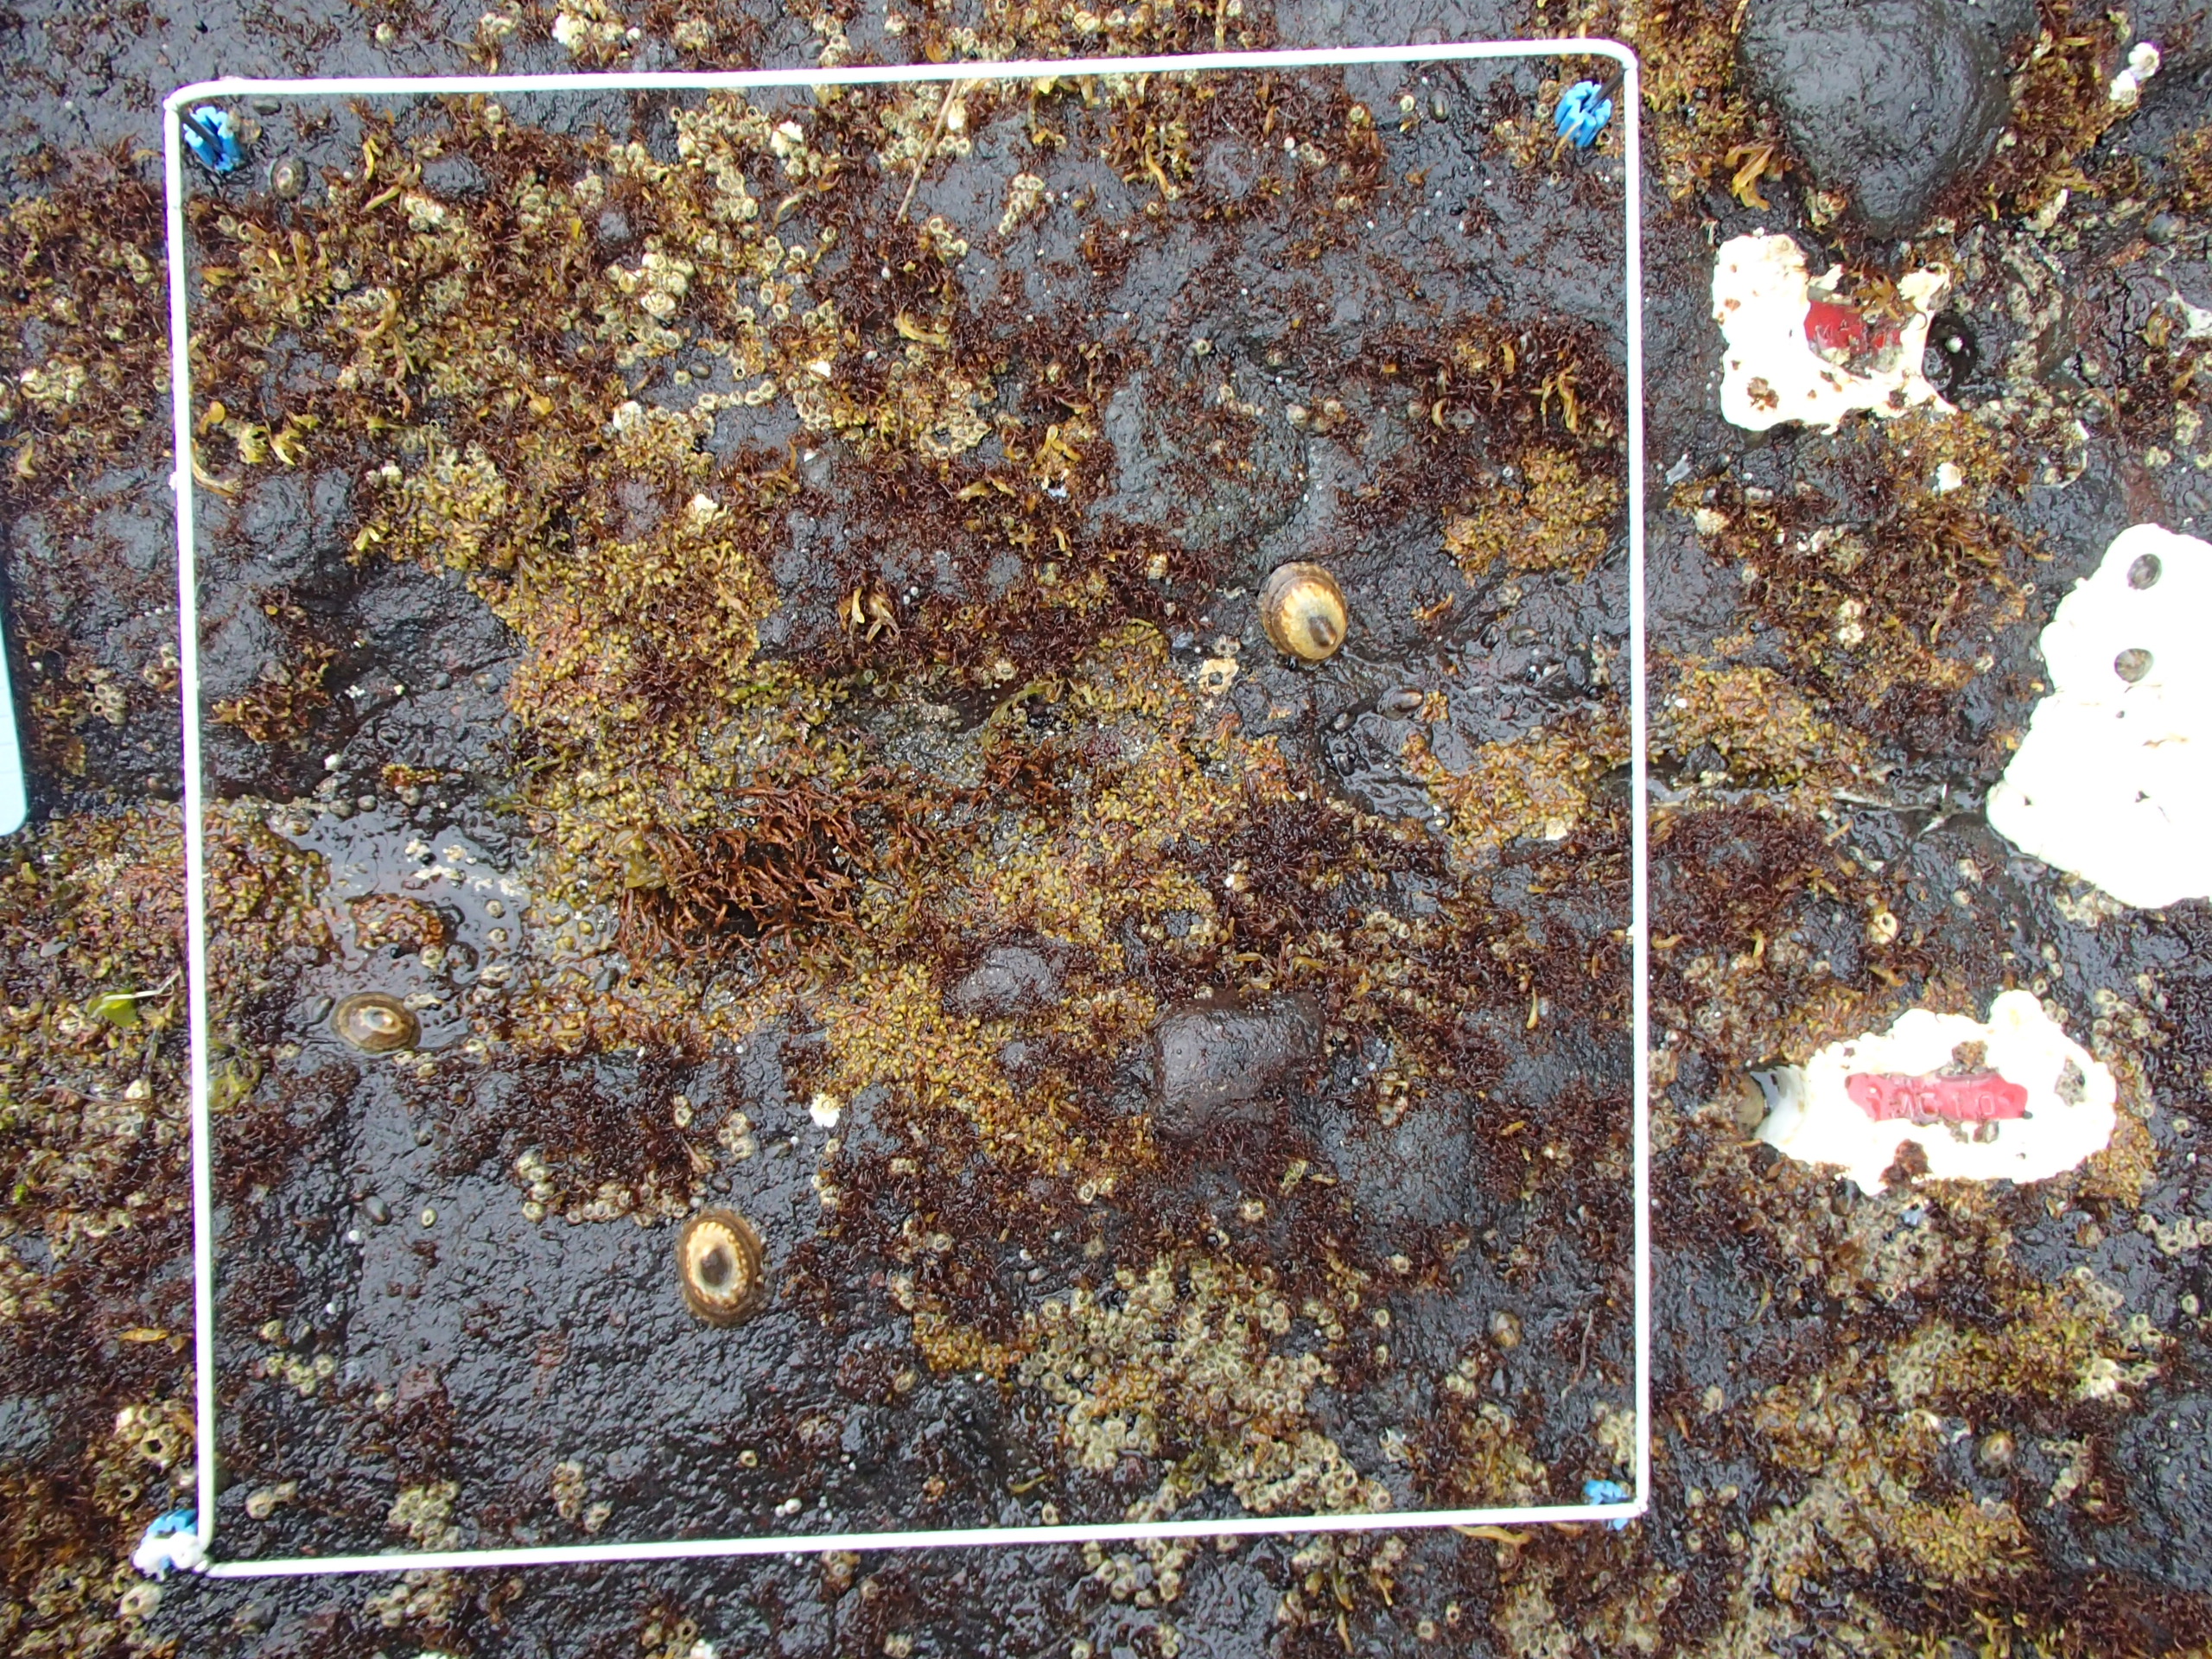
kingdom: Chromista
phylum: Ochrophyta
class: Phaeophyceae
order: Scytosiphonales
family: Scytosiphonaceae
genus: Analipus
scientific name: Analipus japonicus
